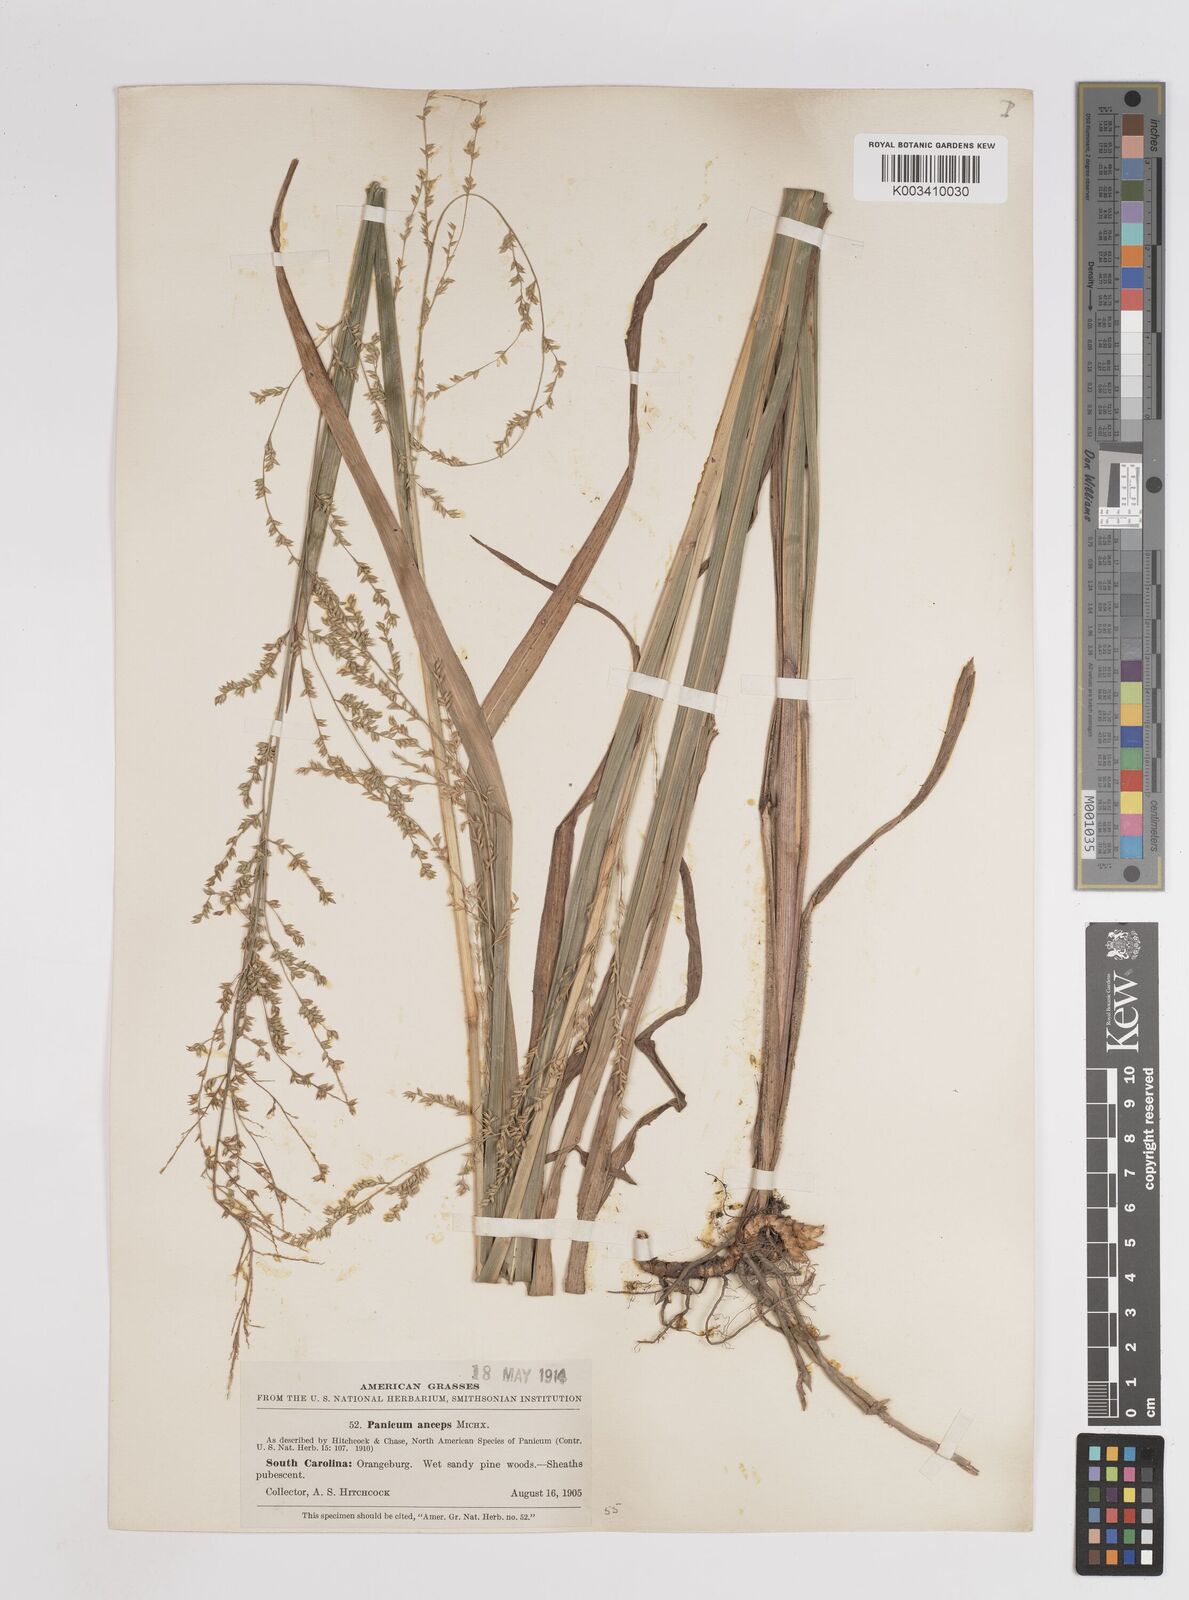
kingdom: Plantae
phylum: Tracheophyta
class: Liliopsida
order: Poales
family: Poaceae
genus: Coleataenia
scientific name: Coleataenia anceps
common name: Beaked panic grass
